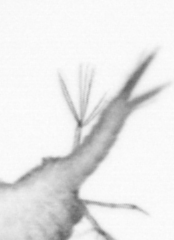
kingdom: Animalia
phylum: Annelida
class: Polychaeta
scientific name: Polychaeta
